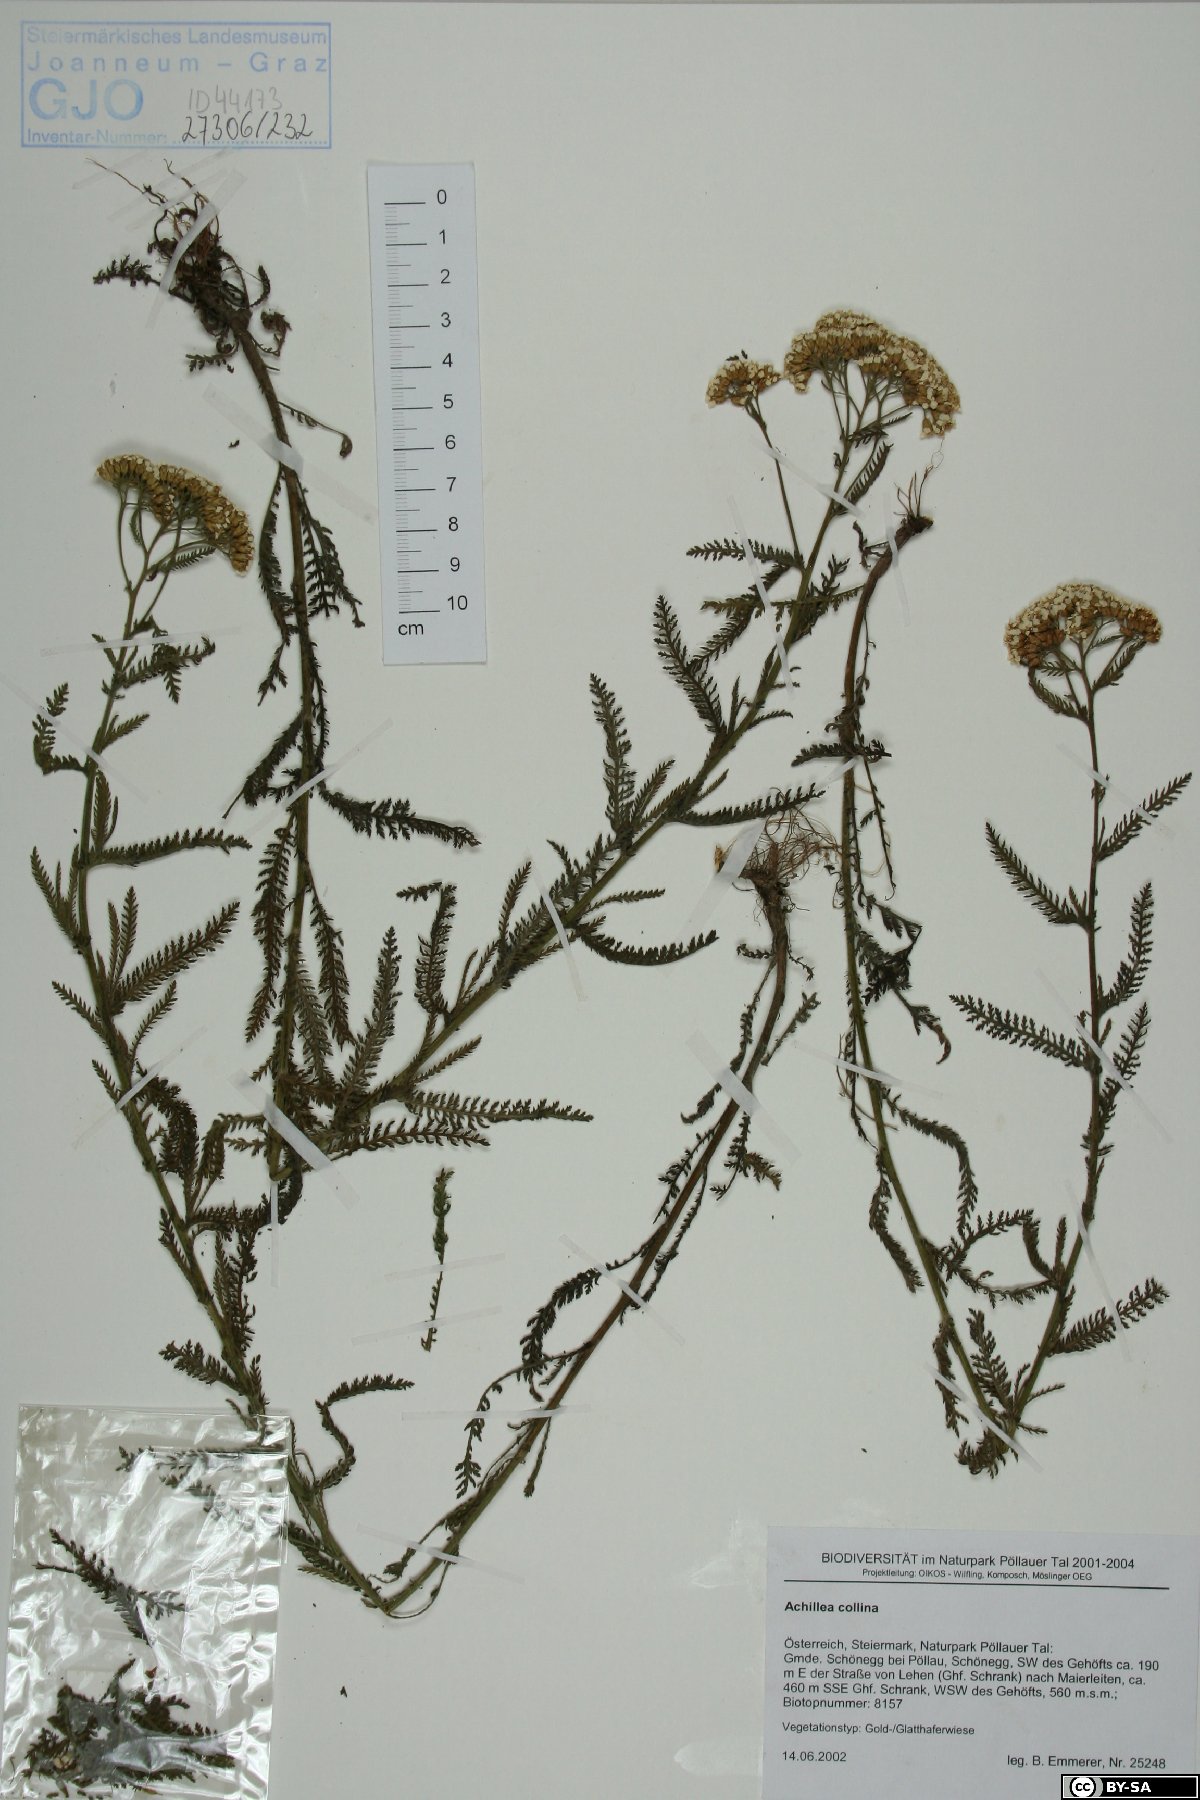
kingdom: Plantae
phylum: Tracheophyta
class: Magnoliopsida
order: Asterales
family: Asteraceae
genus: Achillea
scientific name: Achillea collina
